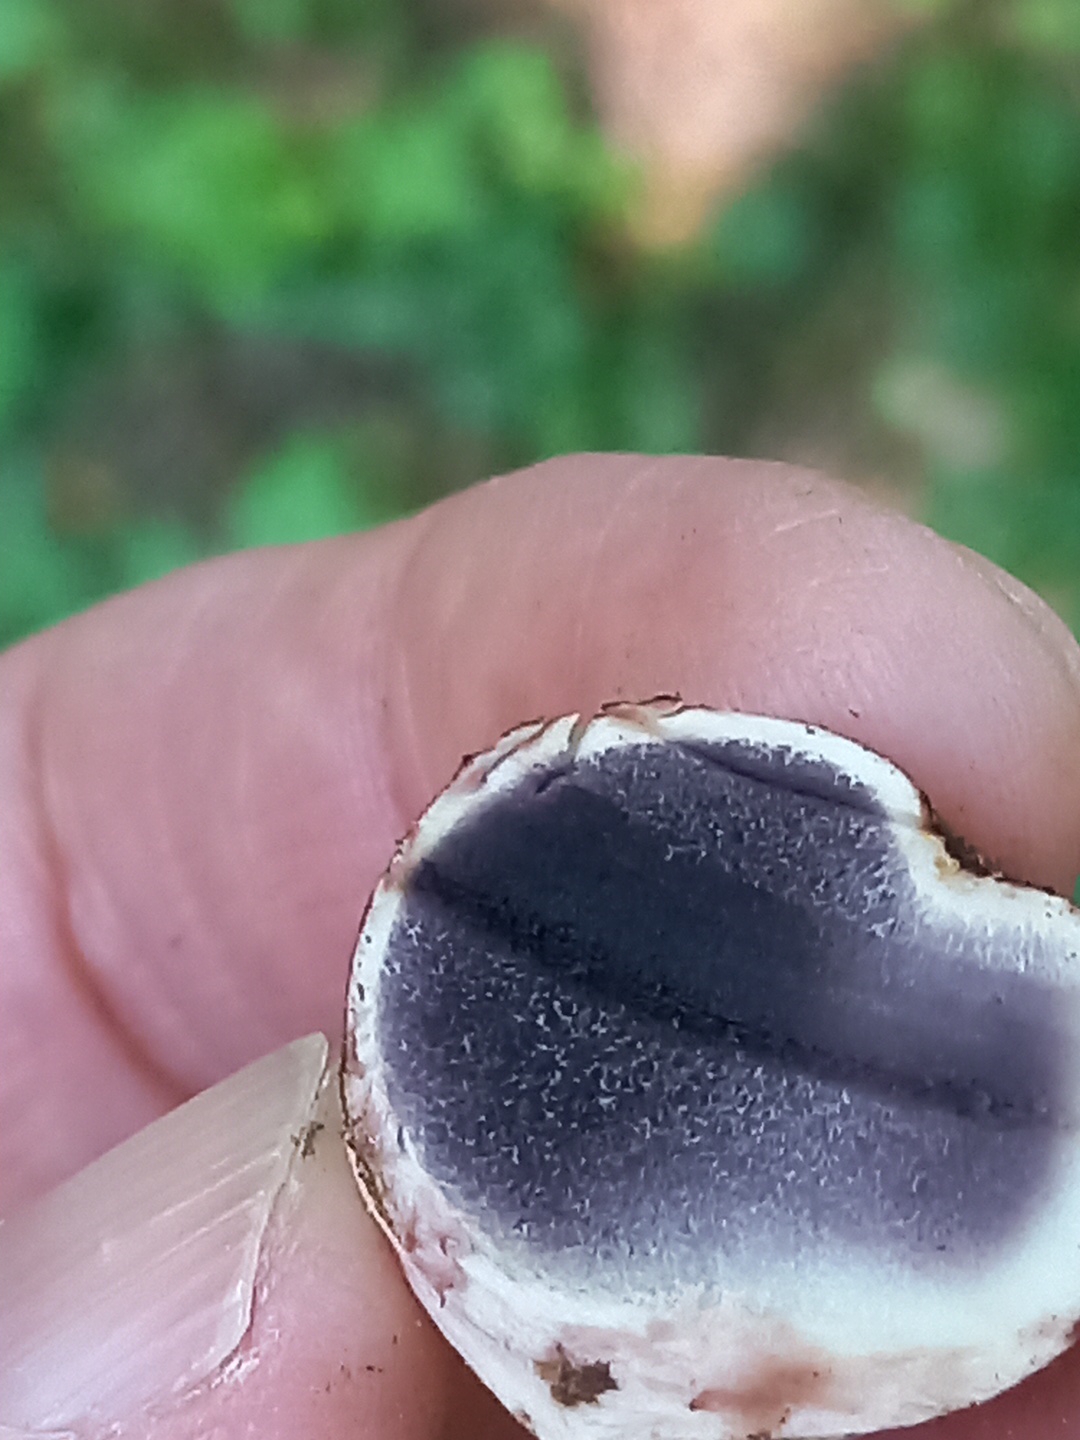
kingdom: Fungi
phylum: Basidiomycota
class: Agaricomycetes
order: Boletales
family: Sclerodermataceae
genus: Scleroderma
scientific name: Scleroderma bovista
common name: bovist-bruskbold
